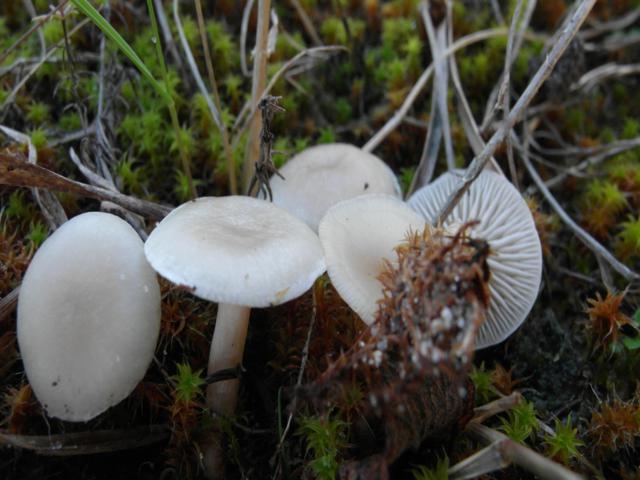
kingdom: Fungi
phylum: Basidiomycota
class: Agaricomycetes
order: Agaricales
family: Tricholomataceae
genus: Clitocybe
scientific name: Clitocybe agrestis
